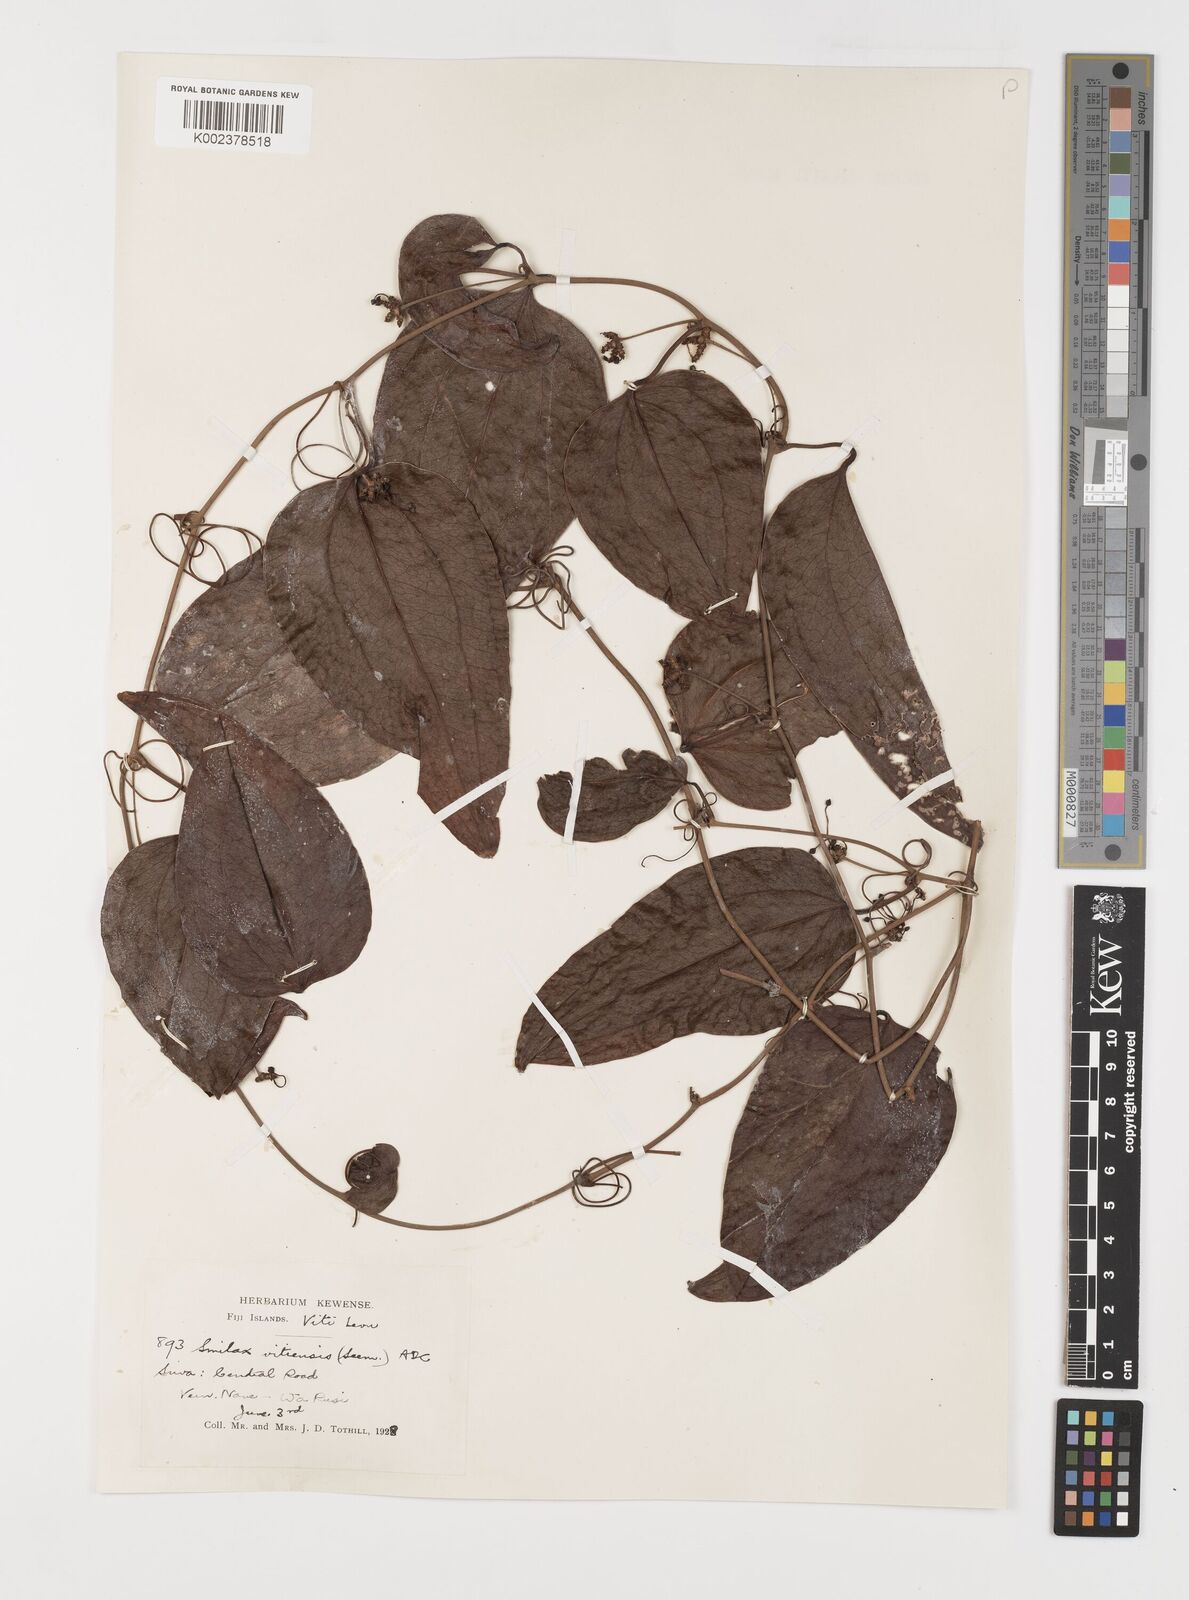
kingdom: Plantae
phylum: Tracheophyta
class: Liliopsida
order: Liliales
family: Smilacaceae
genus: Smilax
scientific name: Smilax vitiensis
